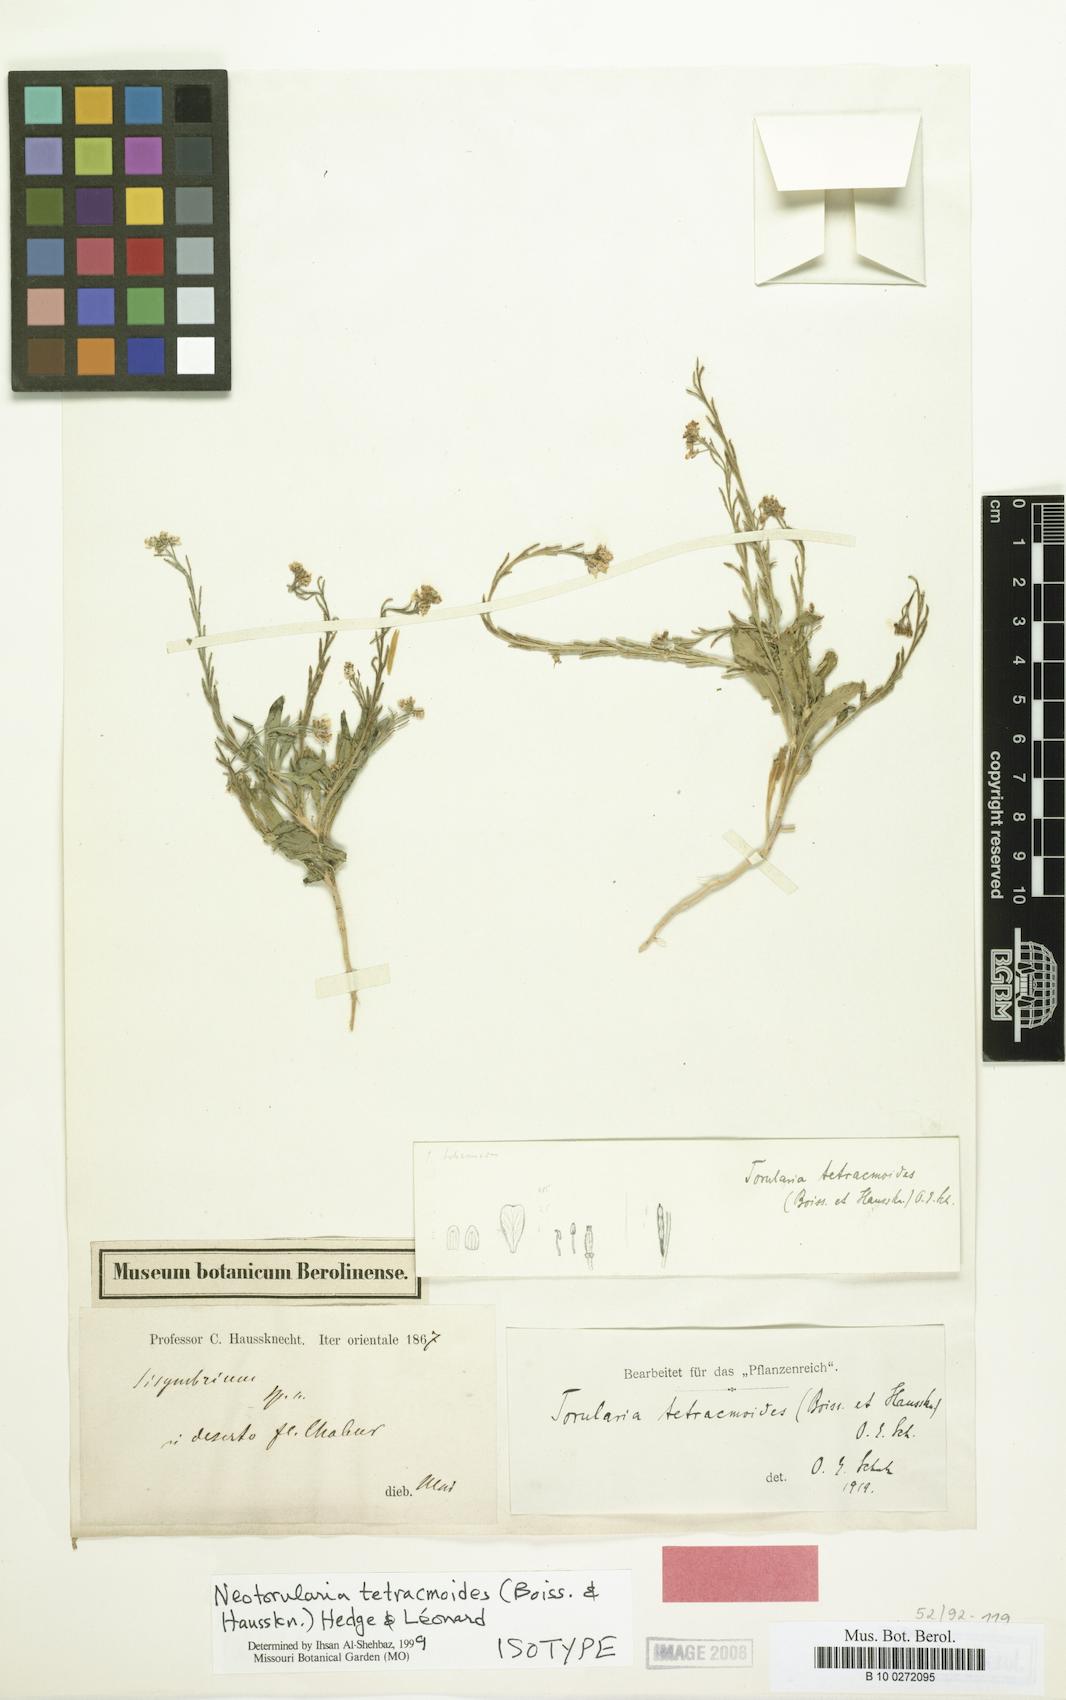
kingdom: Plantae
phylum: Tracheophyta
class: Magnoliopsida
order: Brassicales
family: Brassicaceae
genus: Neotorularia
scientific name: Neotorularia tetracmoides
